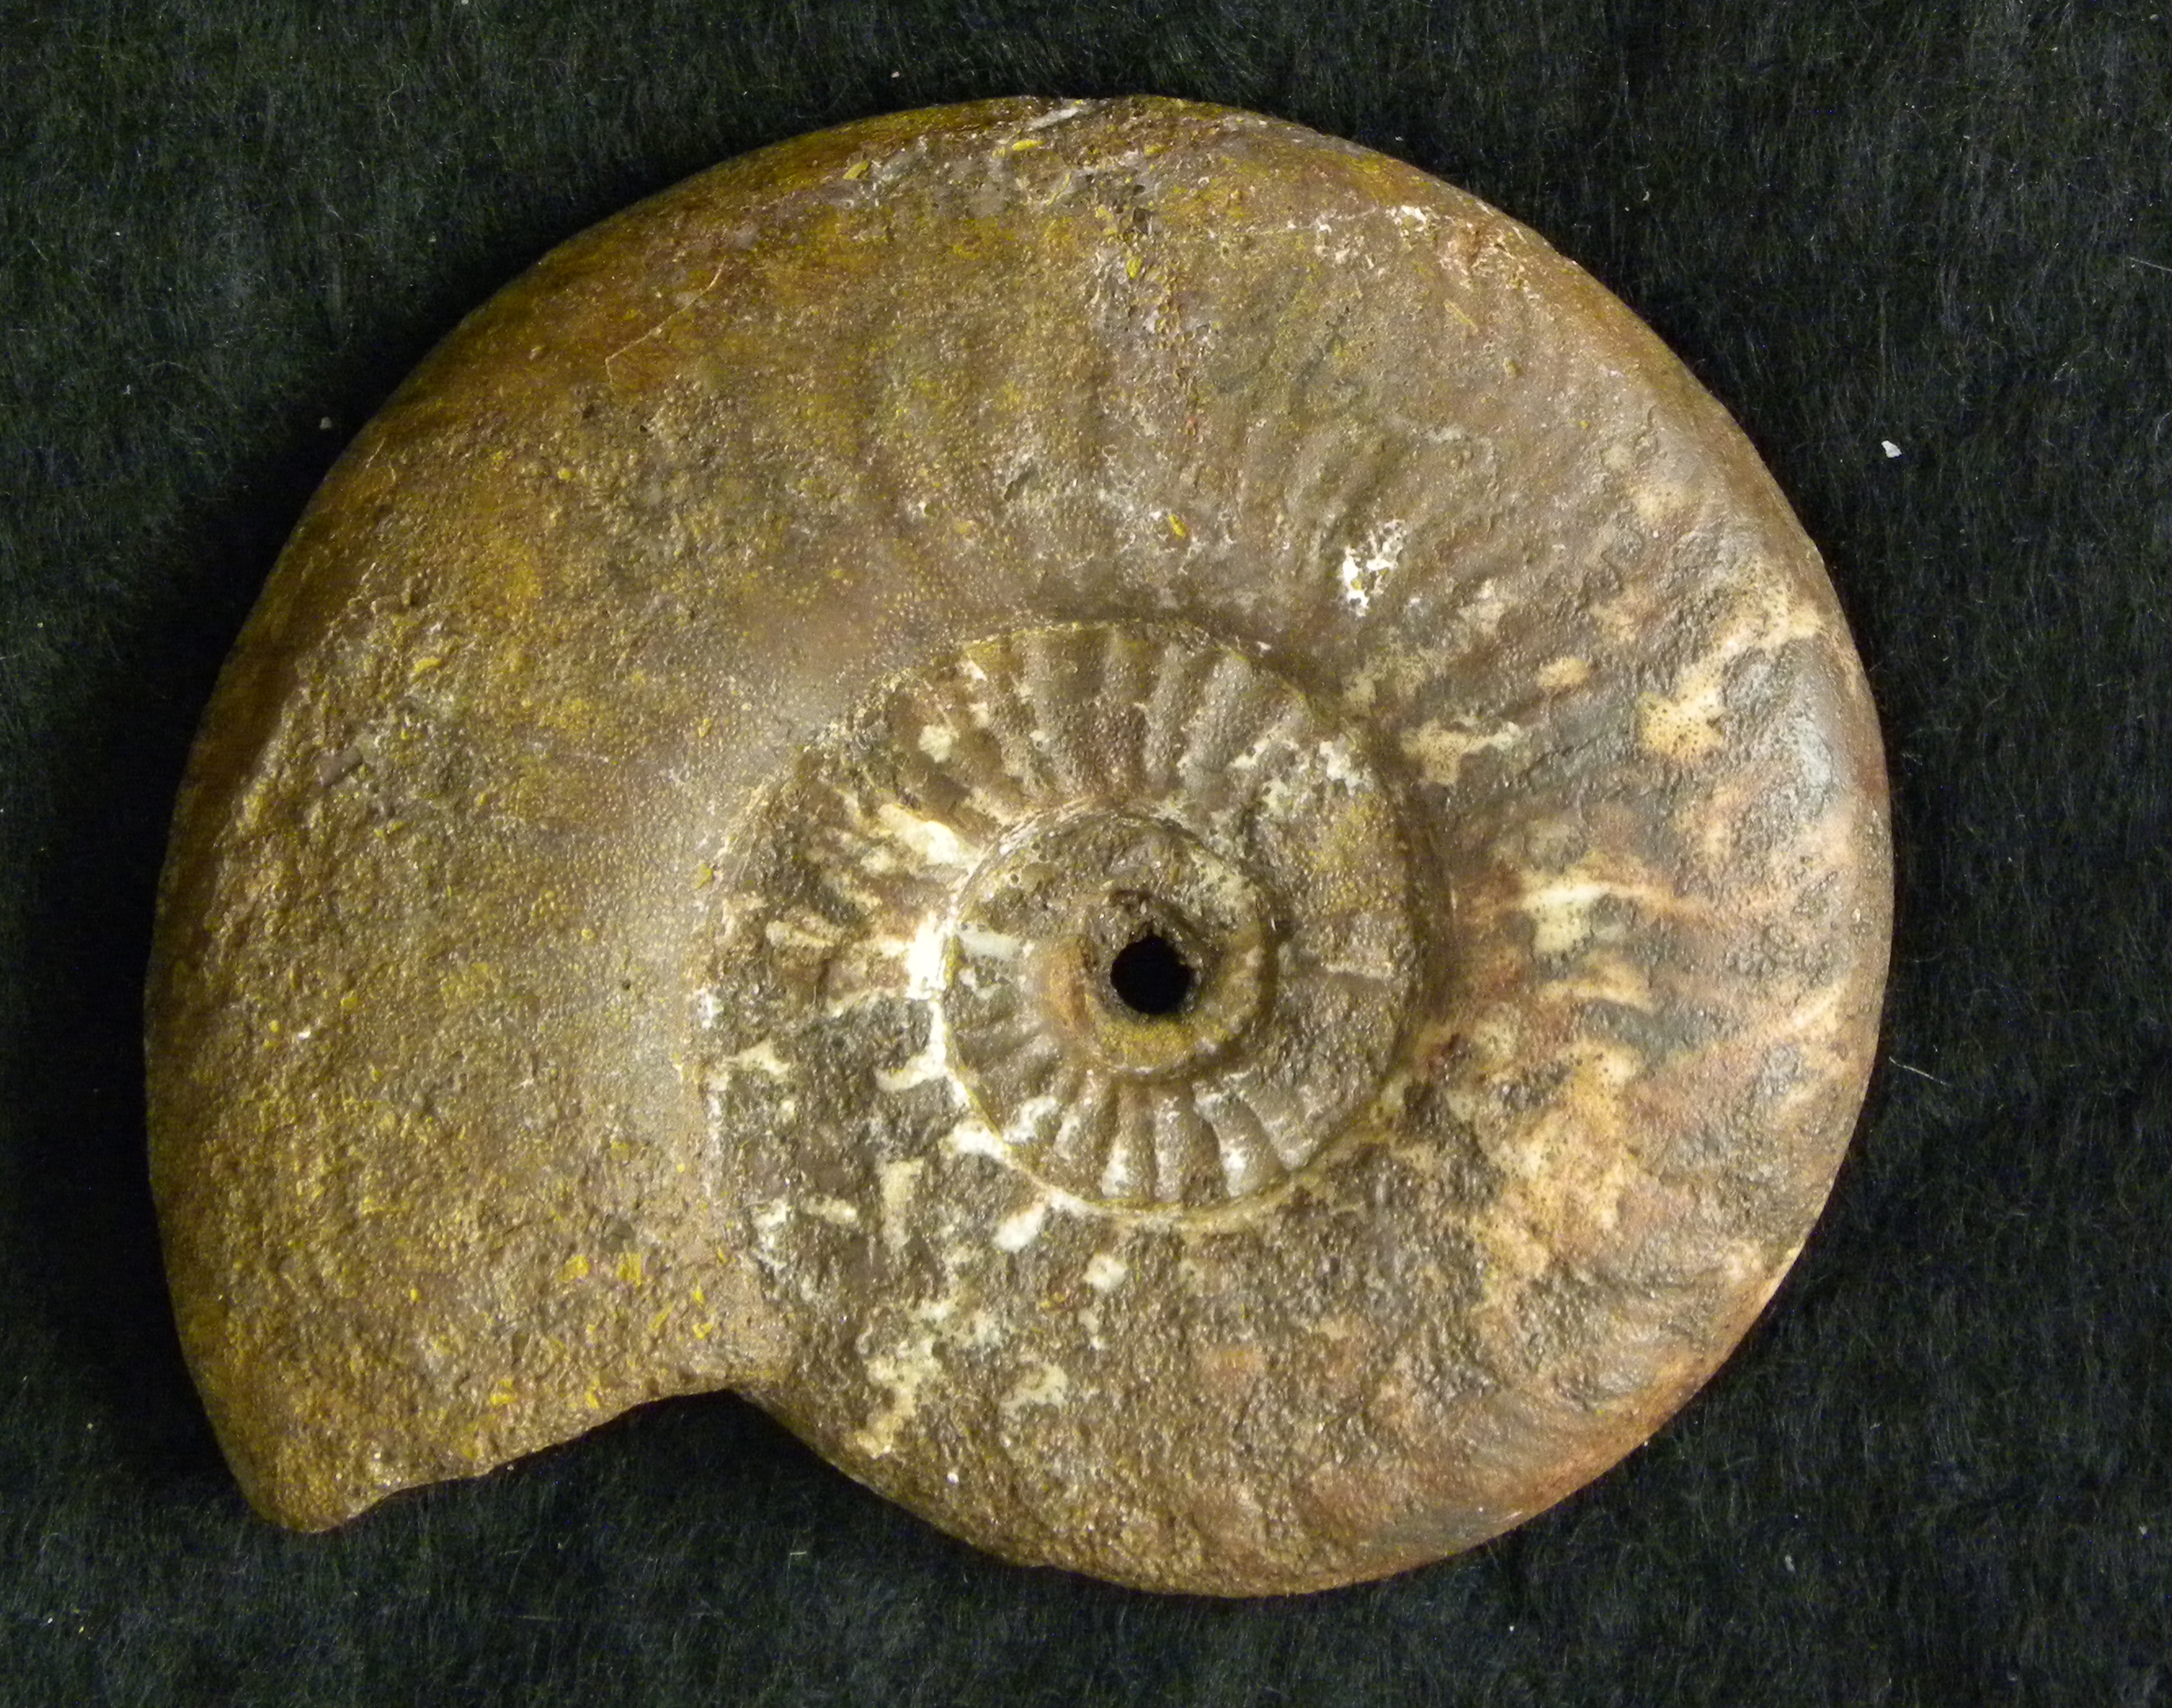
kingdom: Animalia
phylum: Mollusca
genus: Walkericeras
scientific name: Walkericeras
